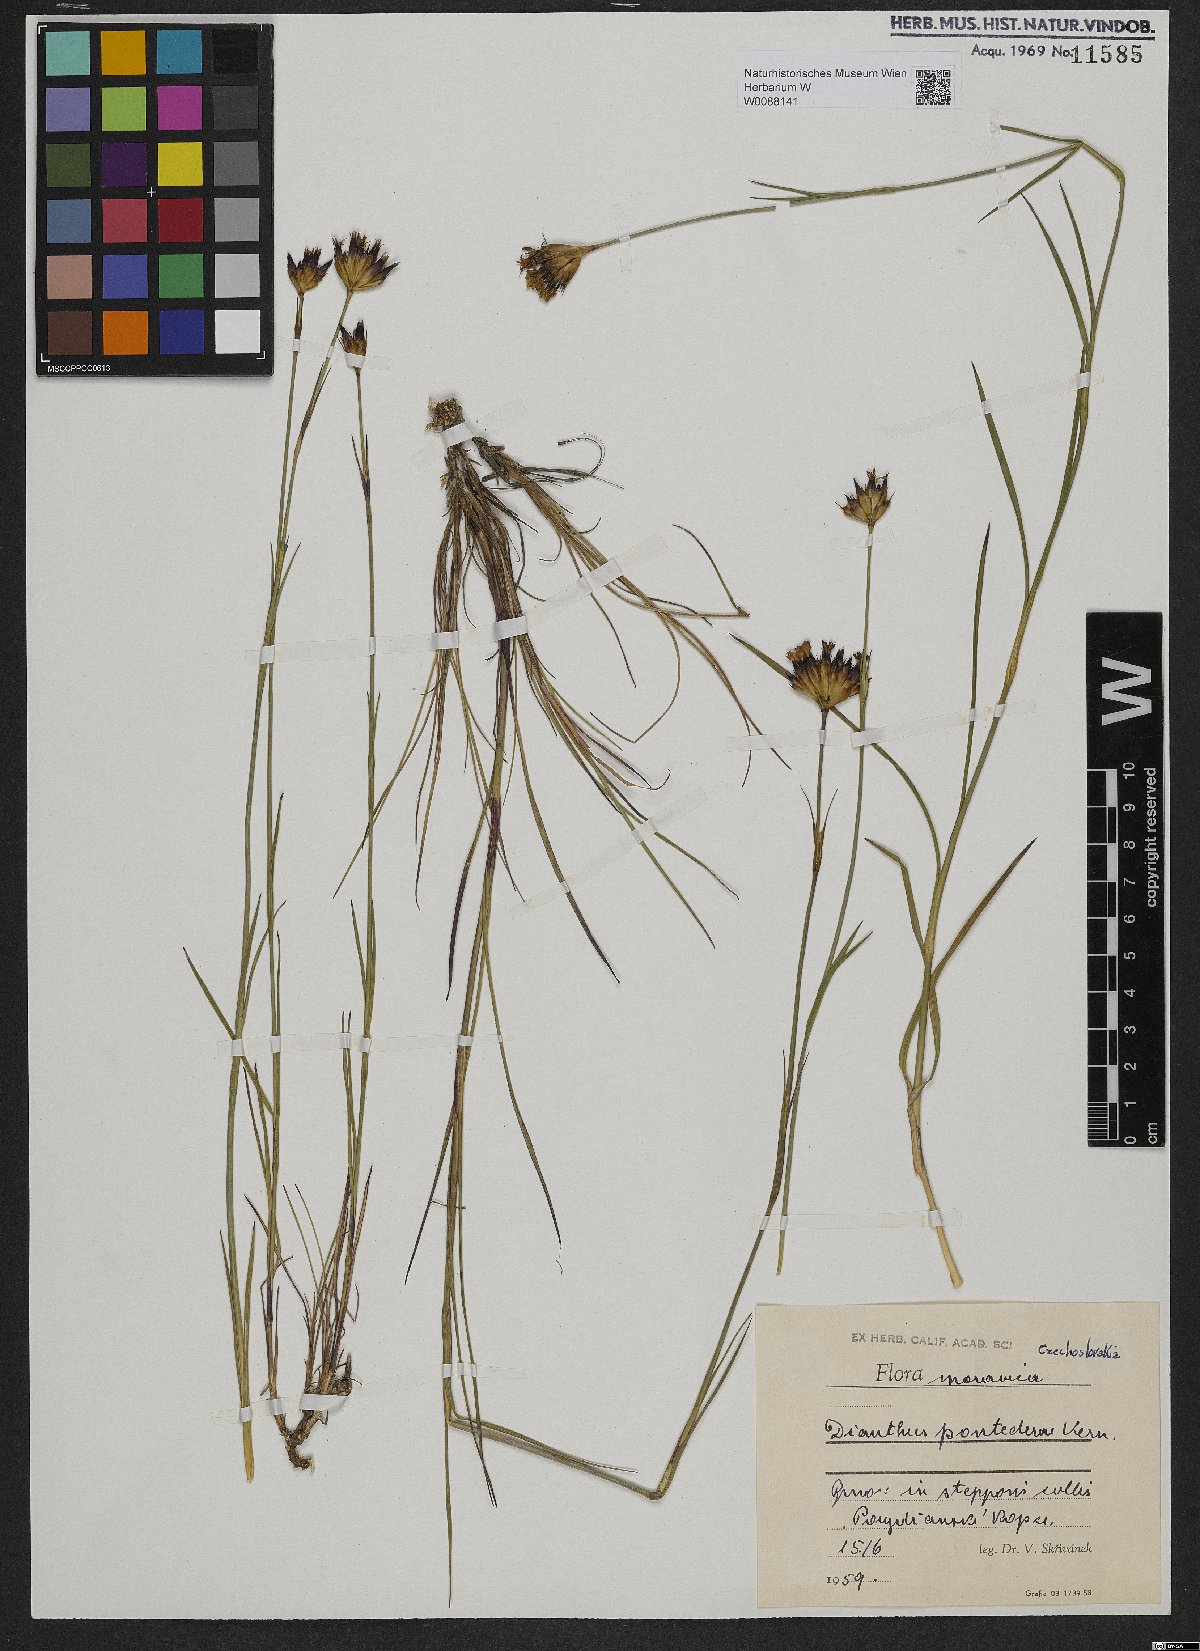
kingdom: Plantae
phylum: Tracheophyta
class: Magnoliopsida
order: Caryophyllales
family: Caryophyllaceae
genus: Dianthus
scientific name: Dianthus pontederae
